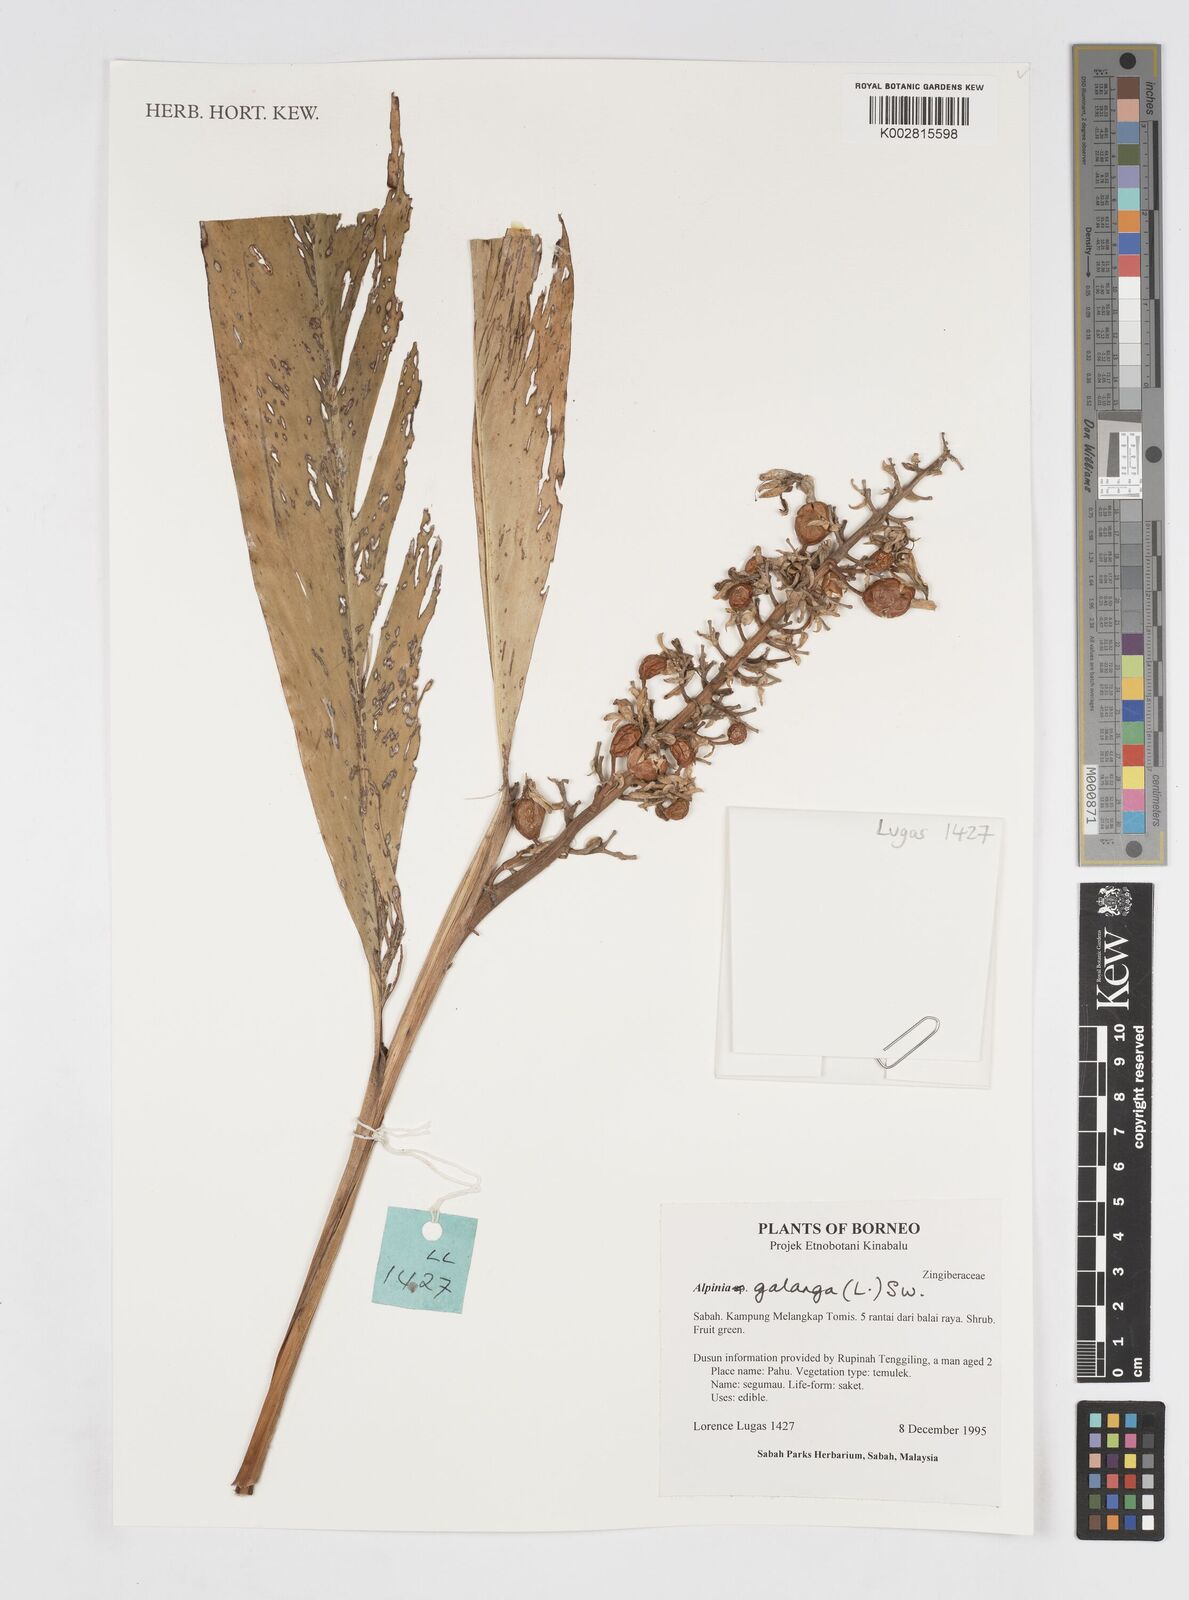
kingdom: Plantae
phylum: Tracheophyta
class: Liliopsida
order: Zingiberales
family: Zingiberaceae
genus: Alpinia
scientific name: Alpinia galanga
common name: Siamese-ginger
